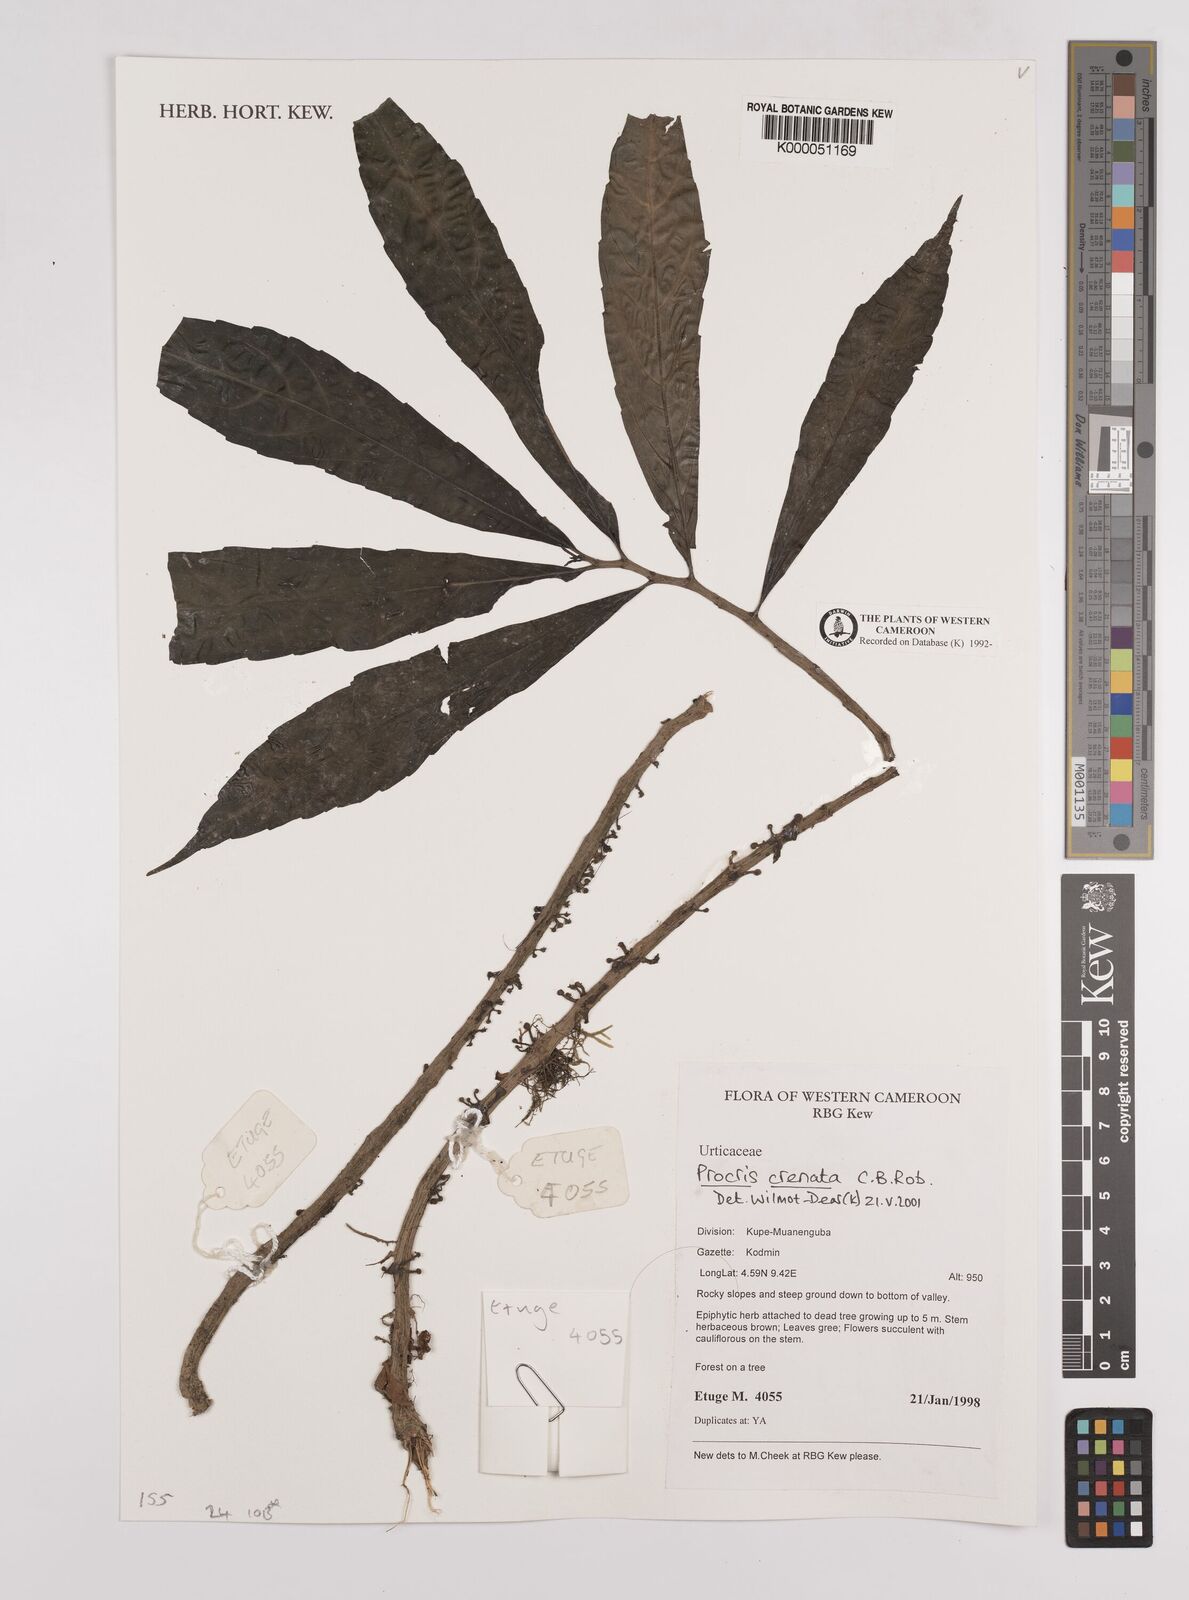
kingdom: Plantae
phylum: Tracheophyta
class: Magnoliopsida
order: Rosales
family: Urticaceae
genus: Procris
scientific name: Procris crenata
